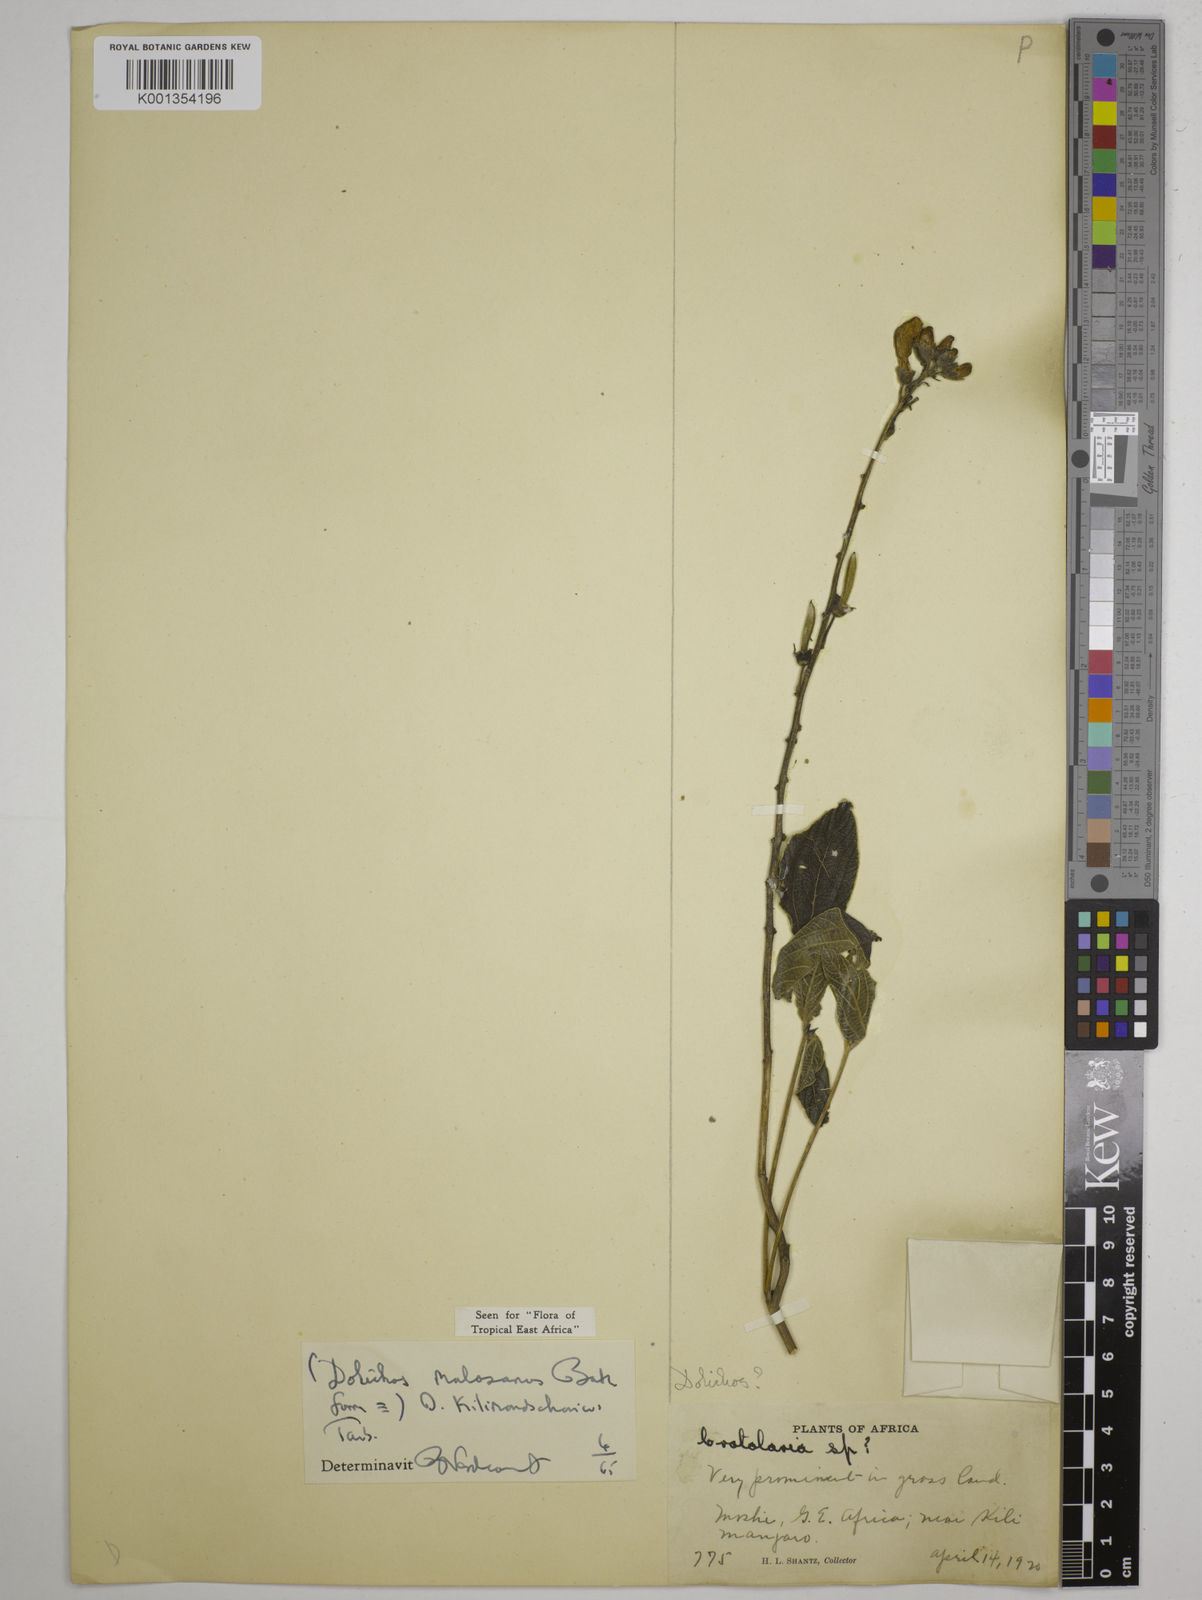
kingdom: Plantae
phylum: Tracheophyta
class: Magnoliopsida
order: Fabales
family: Fabaceae
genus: Dolichos
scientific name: Dolichos kilimandscharicus
